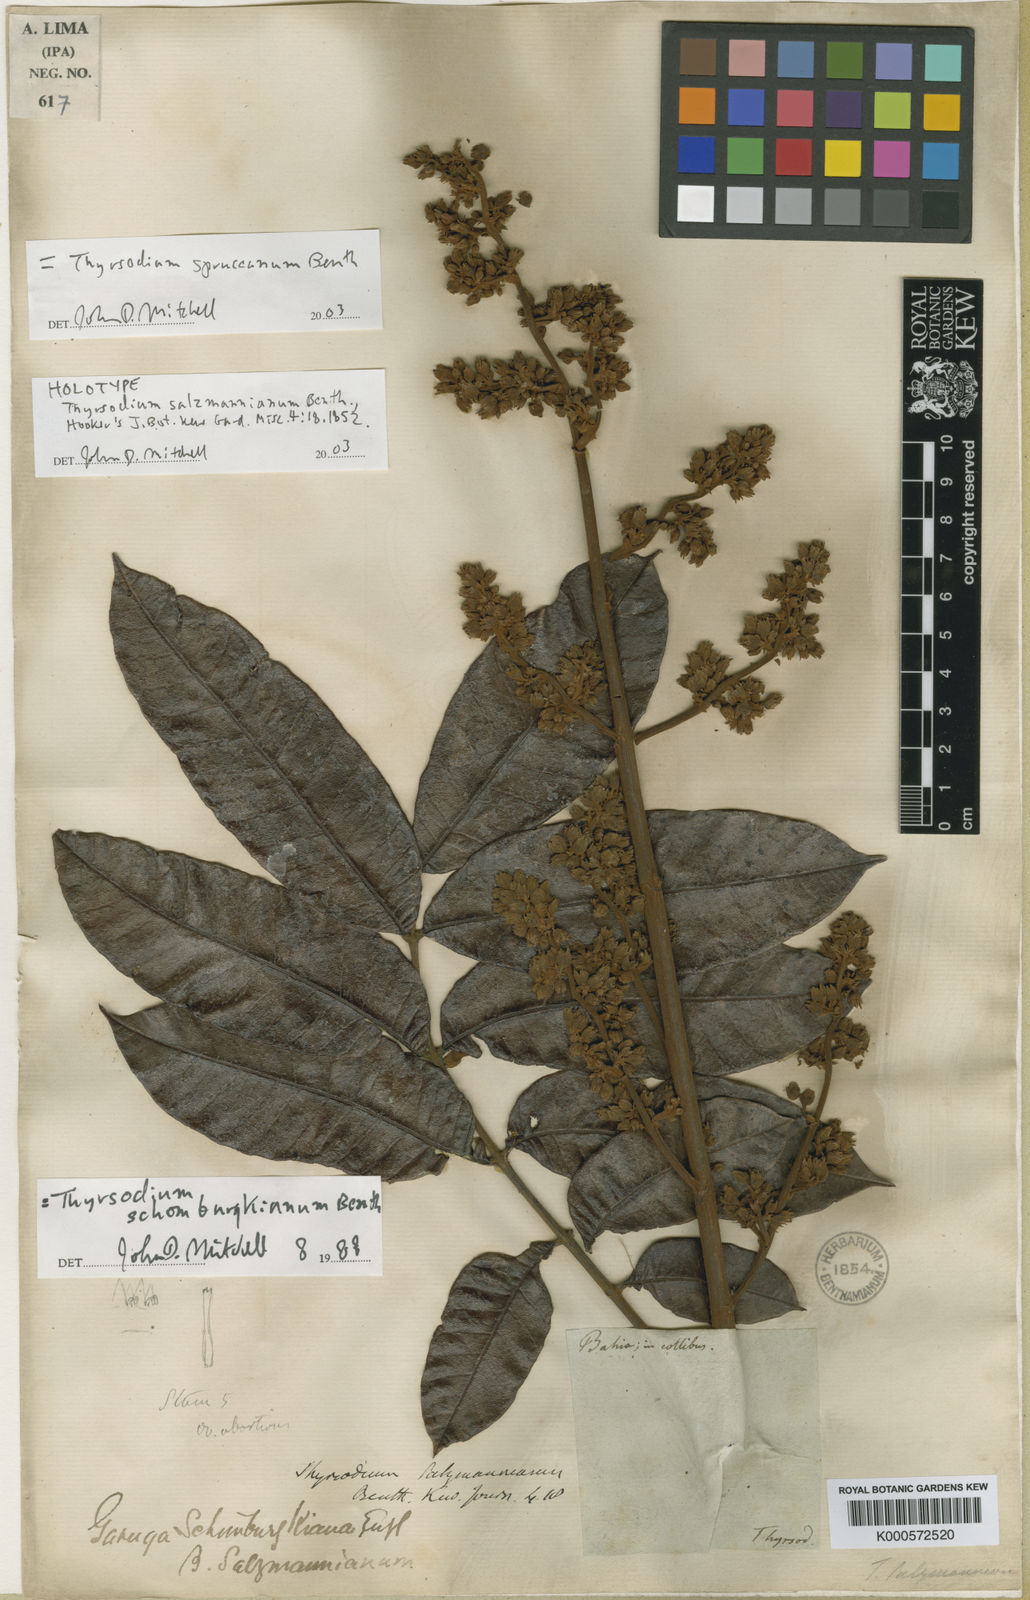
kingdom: Plantae
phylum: Tracheophyta
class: Magnoliopsida
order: Sapindales
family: Anacardiaceae
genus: Thyrsodium
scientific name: Thyrsodium spruceanum
